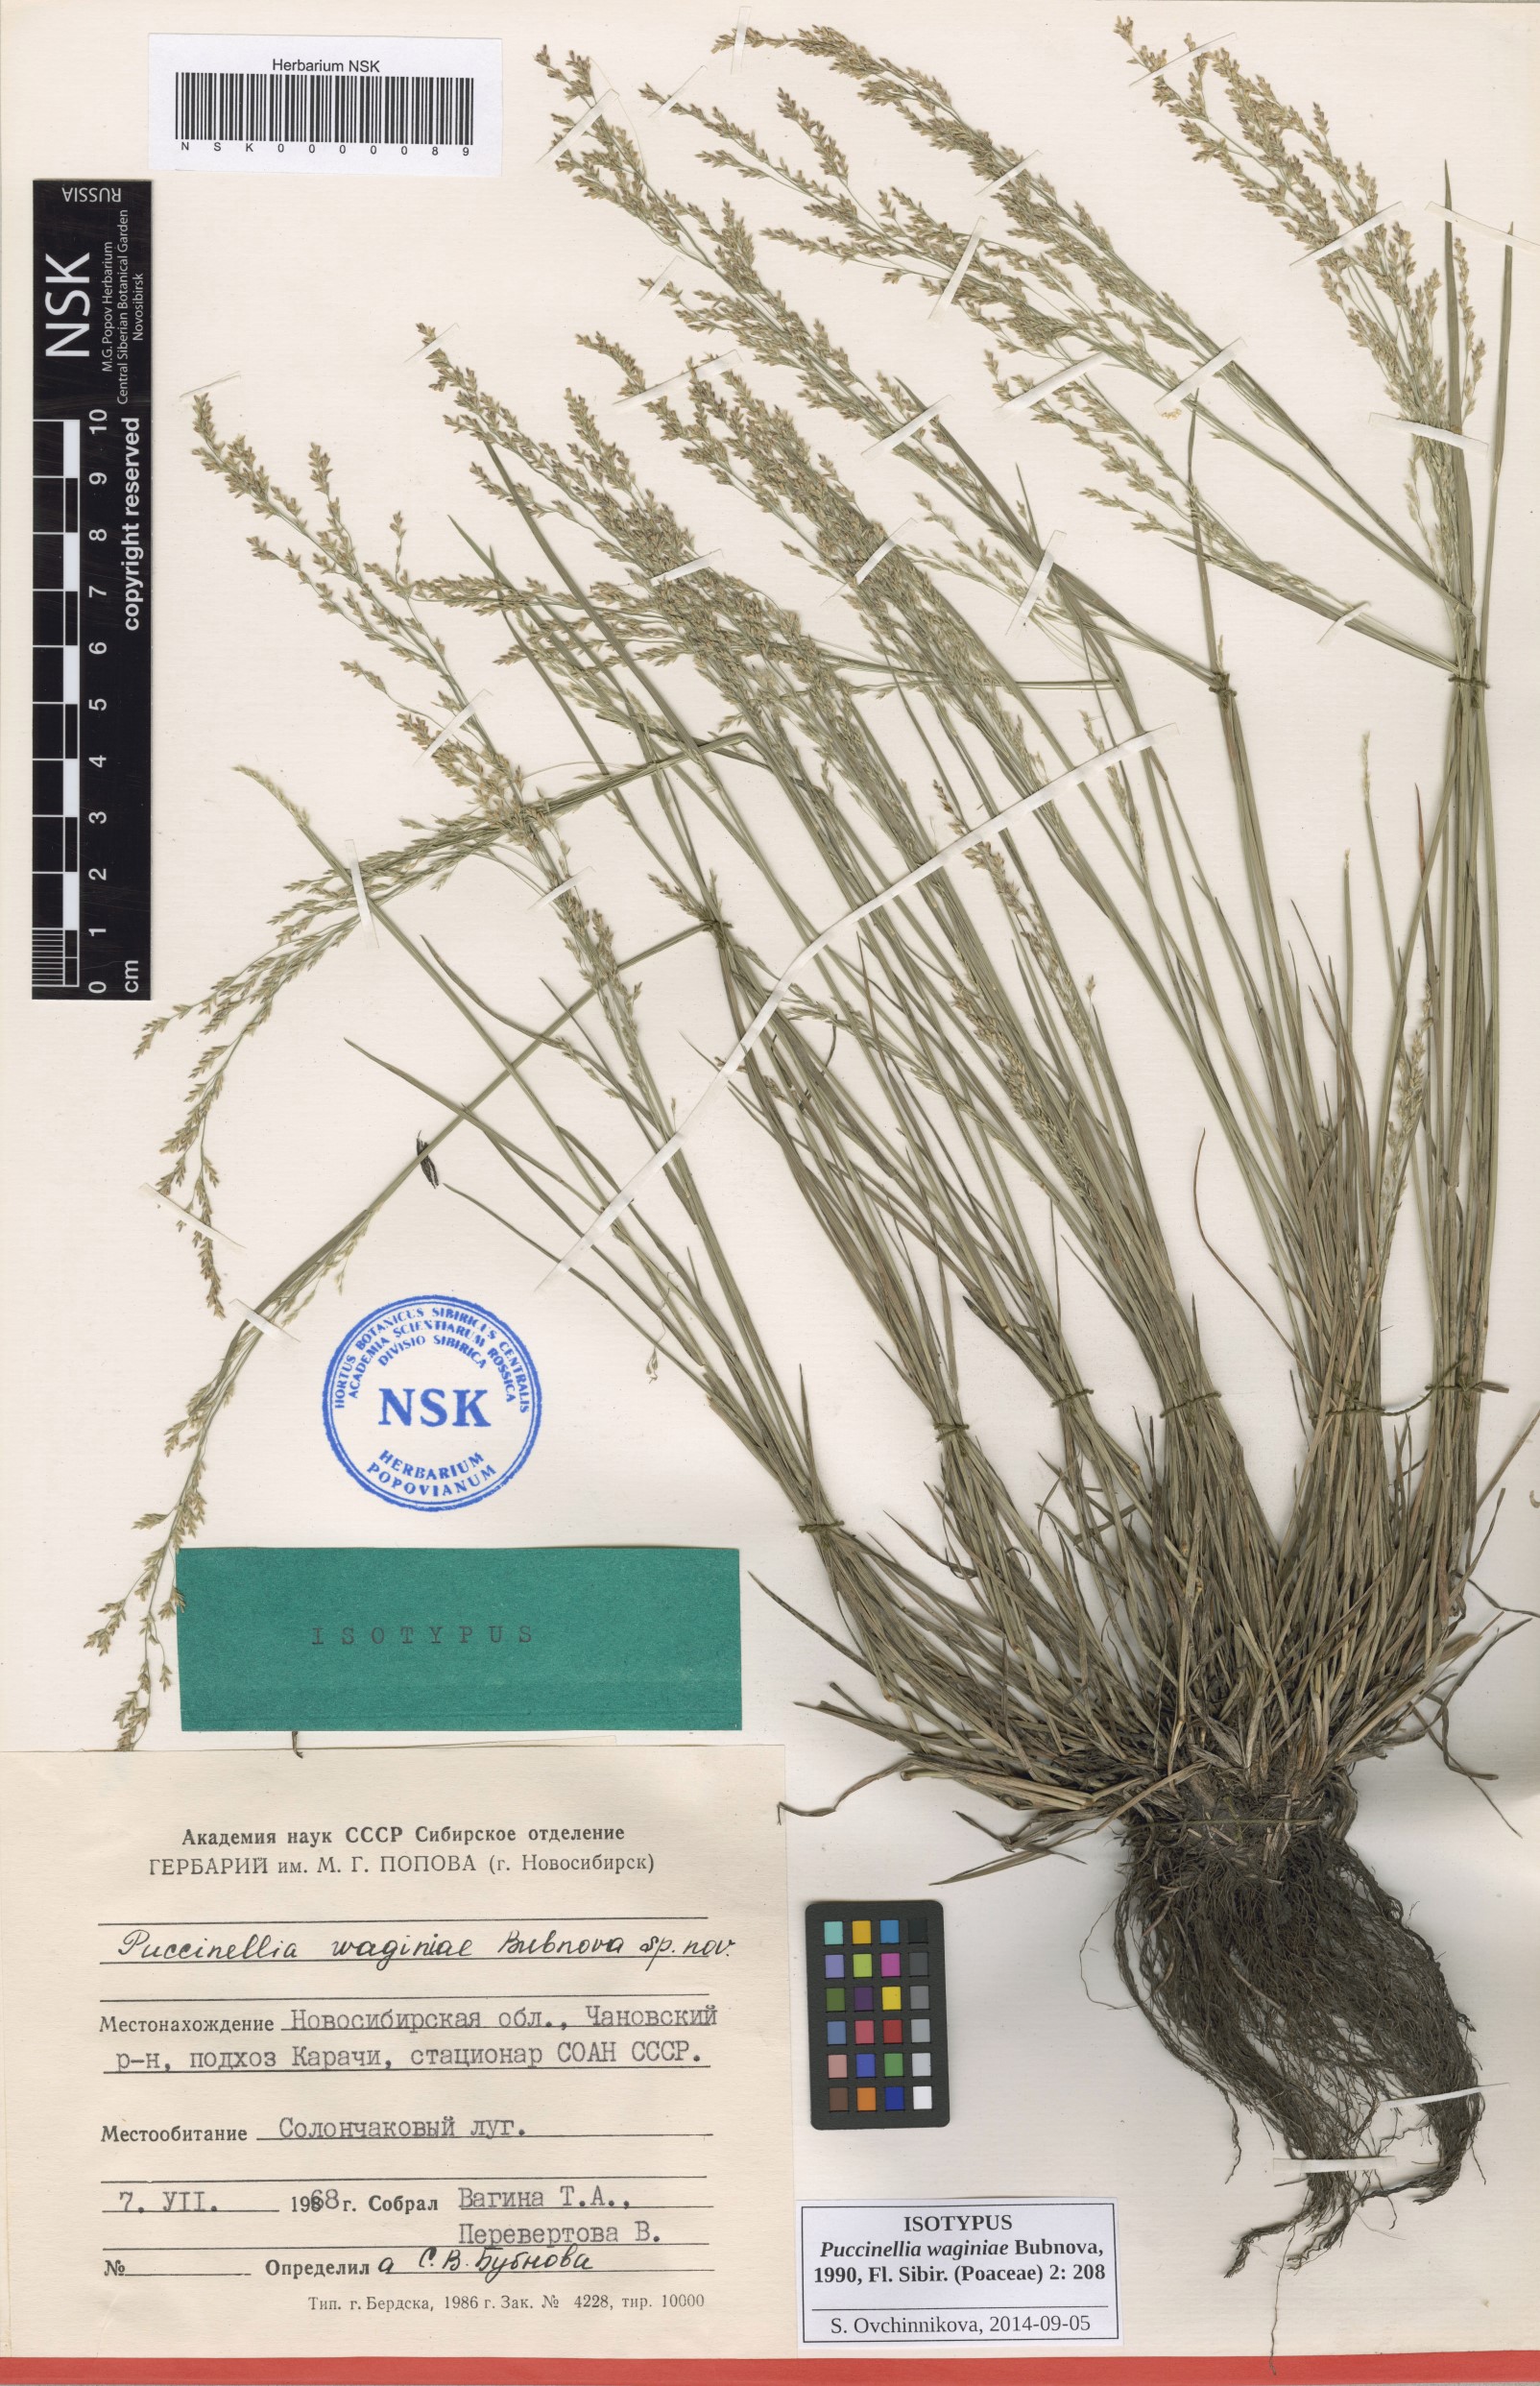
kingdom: Plantae
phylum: Tracheophyta
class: Liliopsida
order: Poales
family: Poaceae
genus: Puccinellia
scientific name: Puccinellia gigantea
